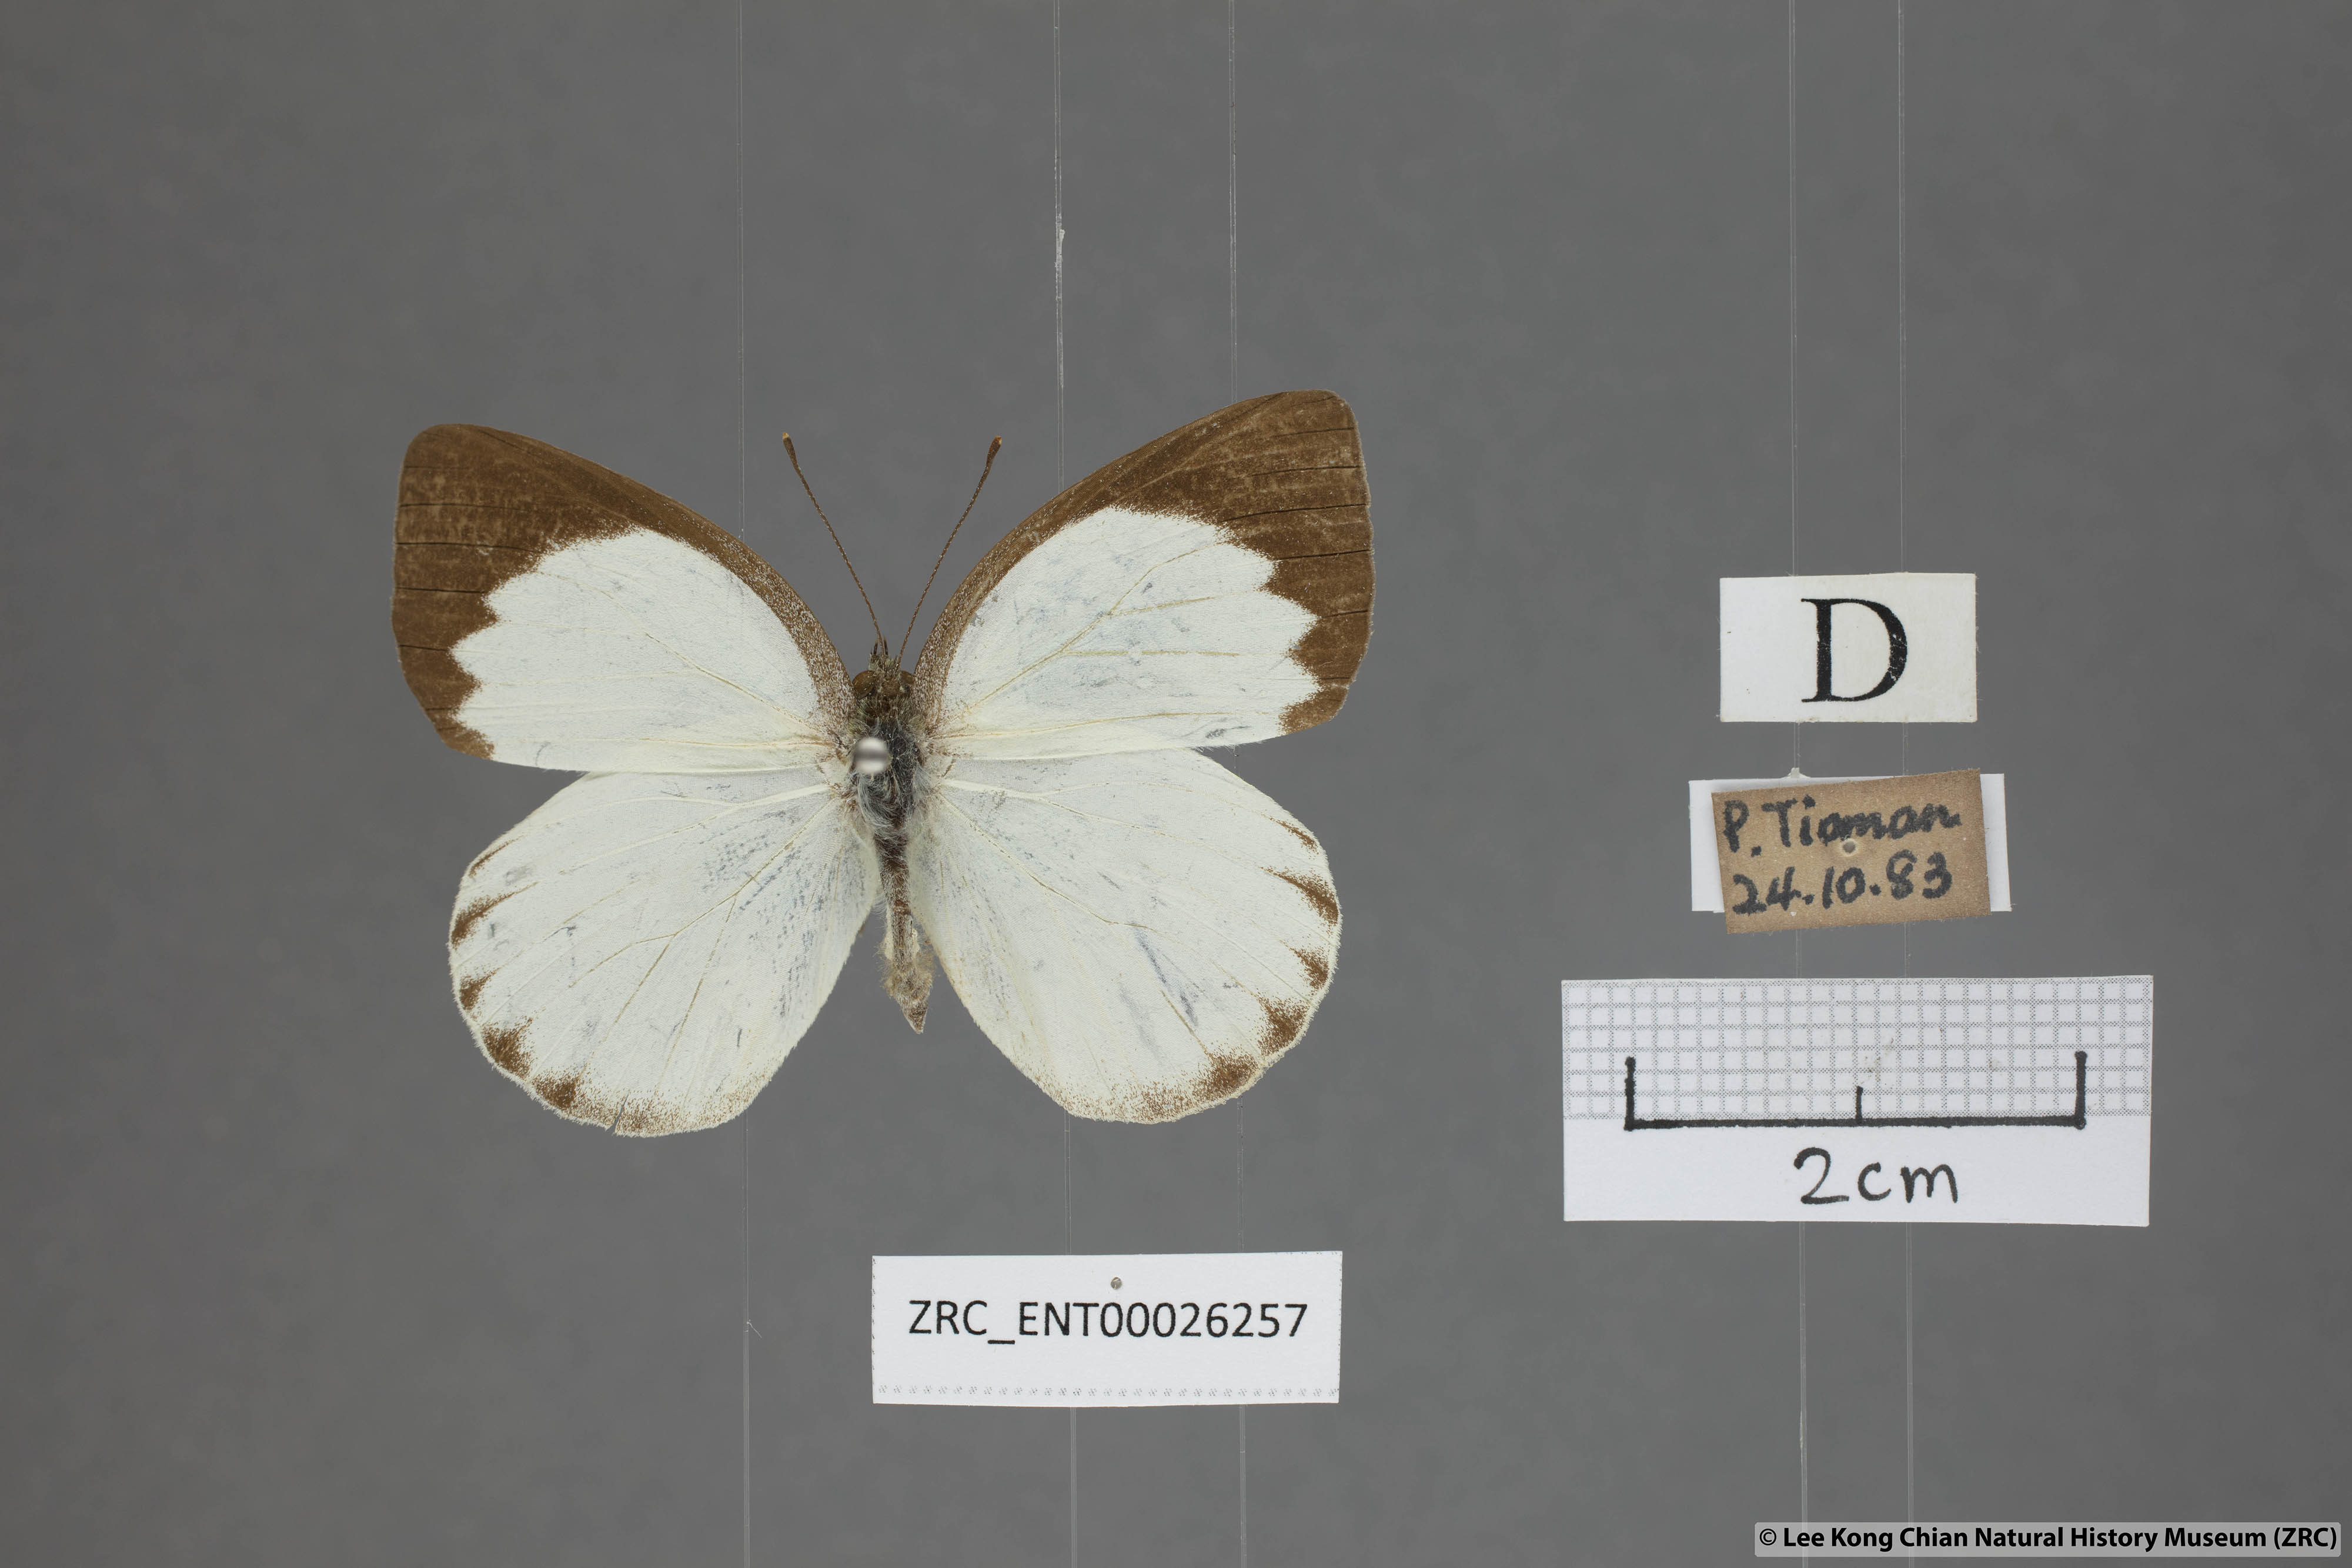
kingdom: Animalia
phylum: Arthropoda
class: Insecta
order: Lepidoptera
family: Pieridae
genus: Phrissura
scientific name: Phrissura aegis
